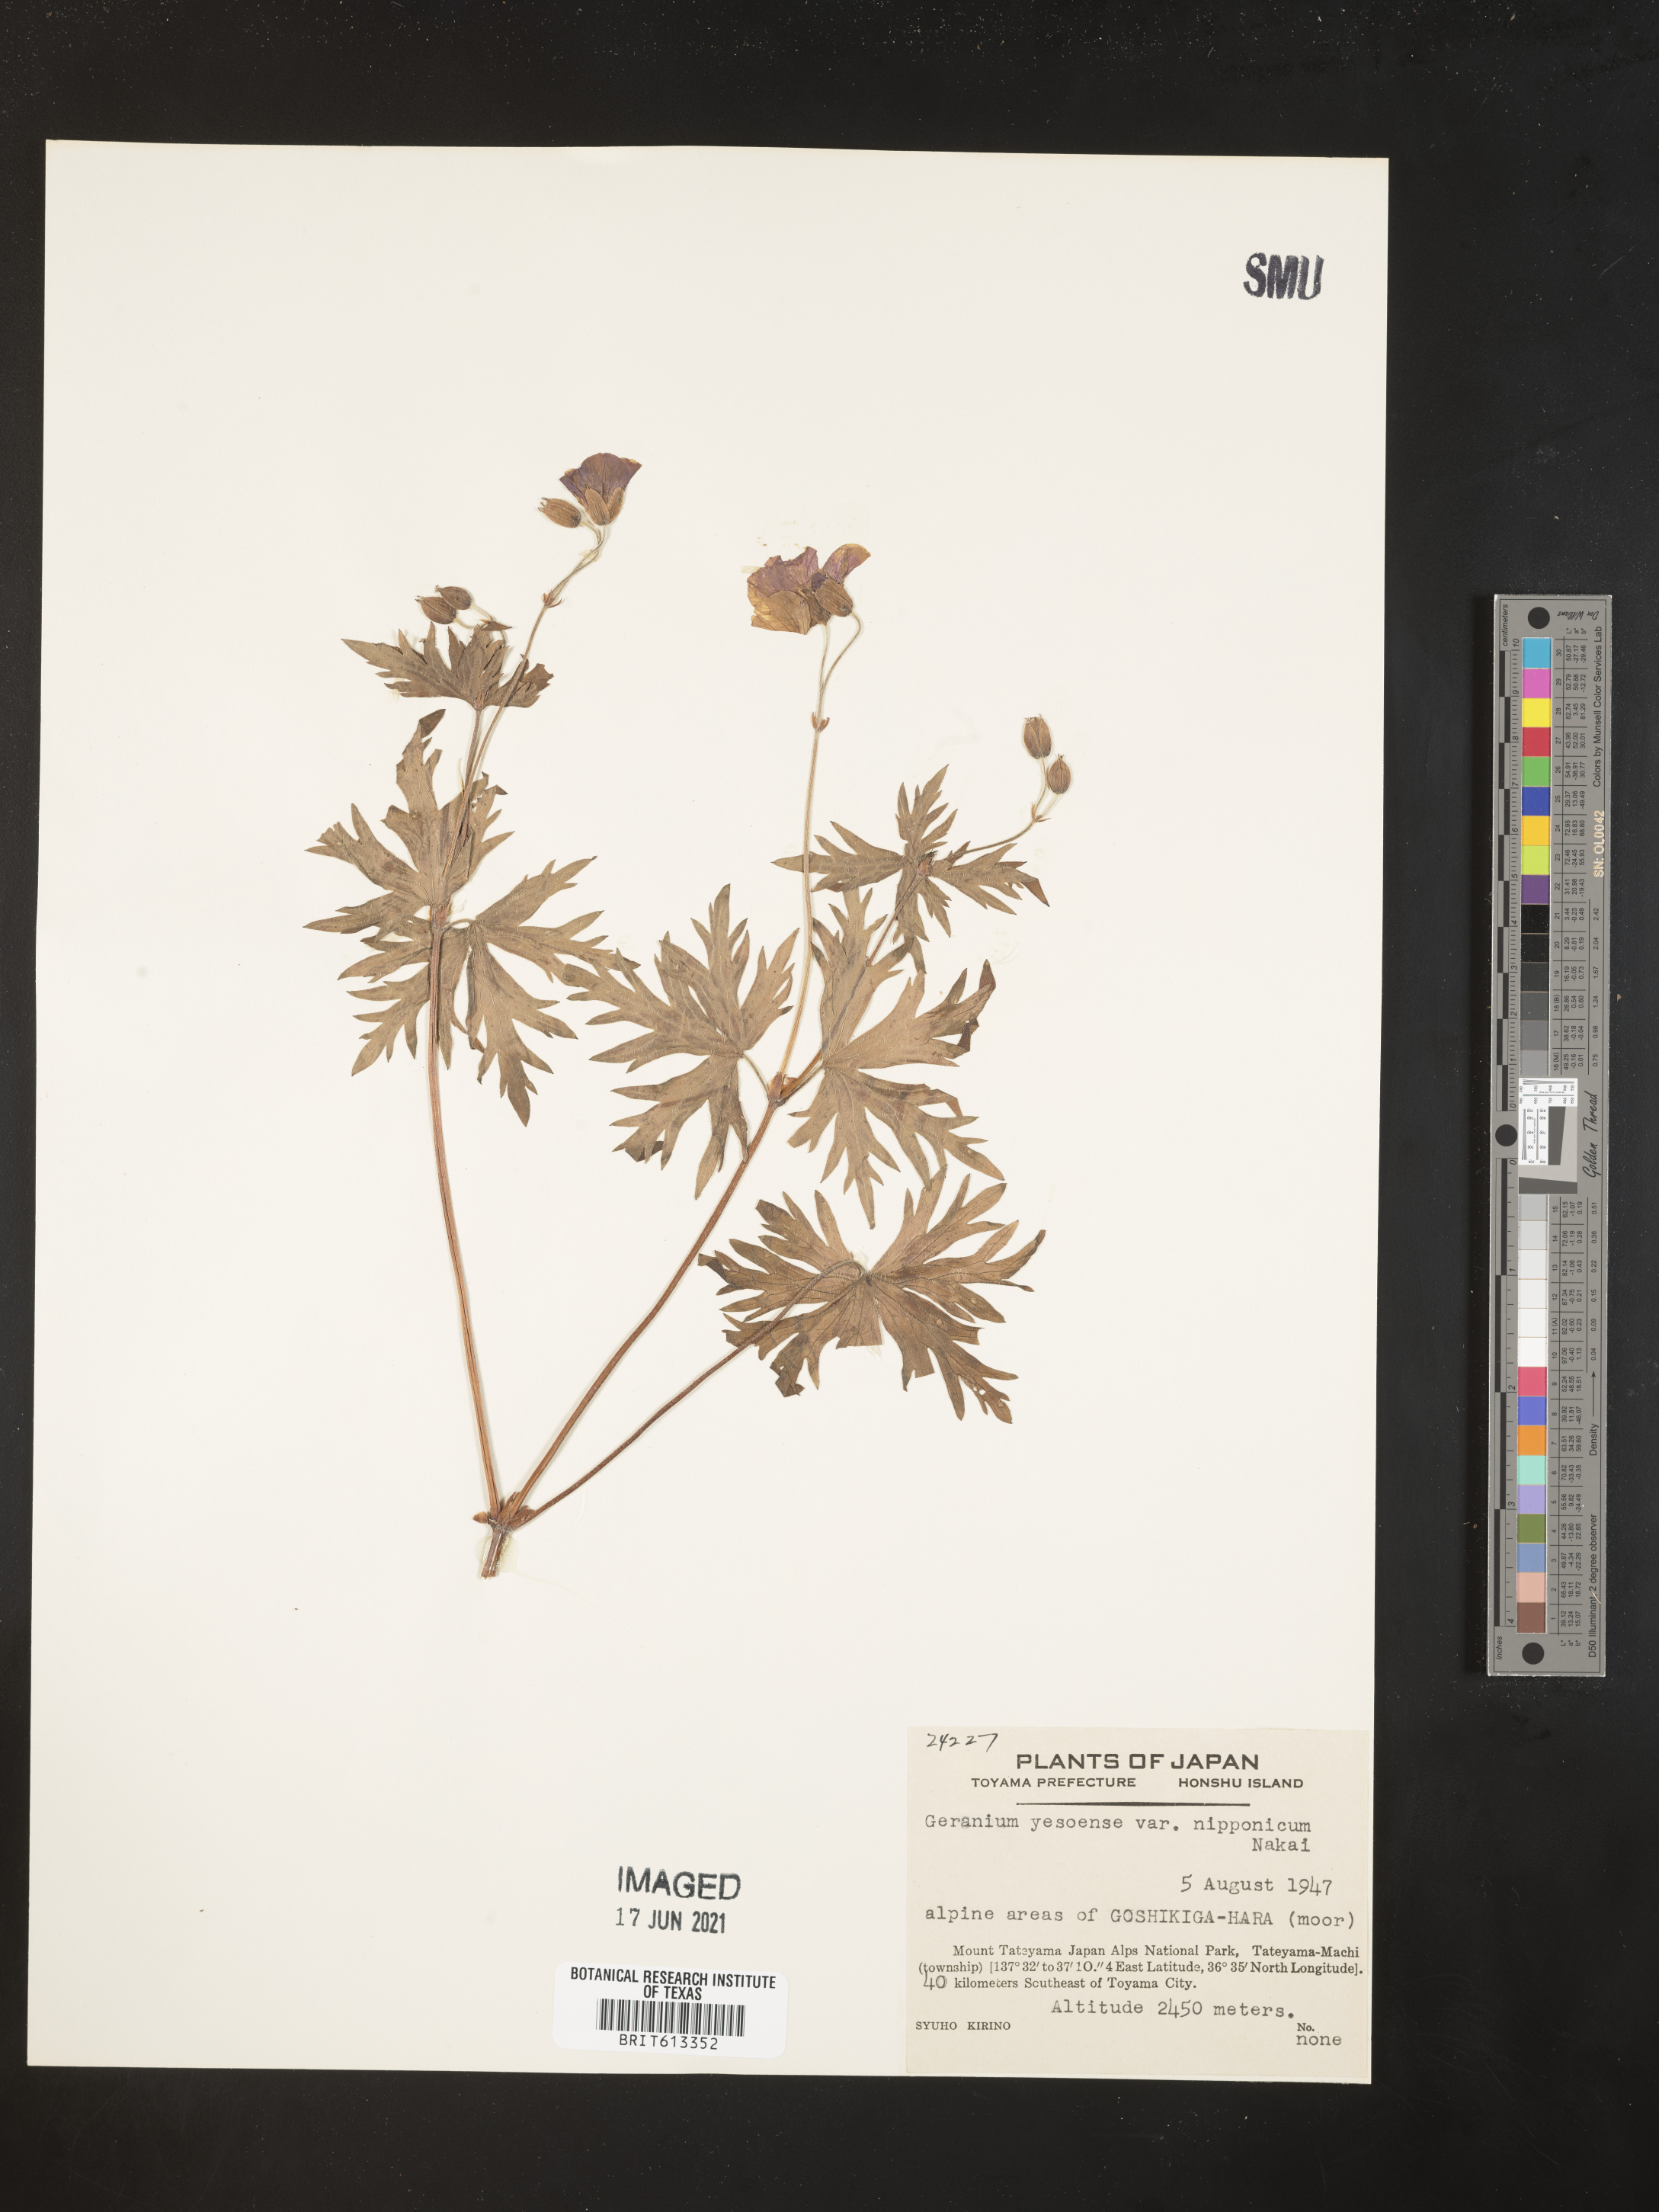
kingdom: Plantae
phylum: Tracheophyta
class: Magnoliopsida
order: Geraniales
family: Geraniaceae
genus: Geranium
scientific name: Geranium yesoense
